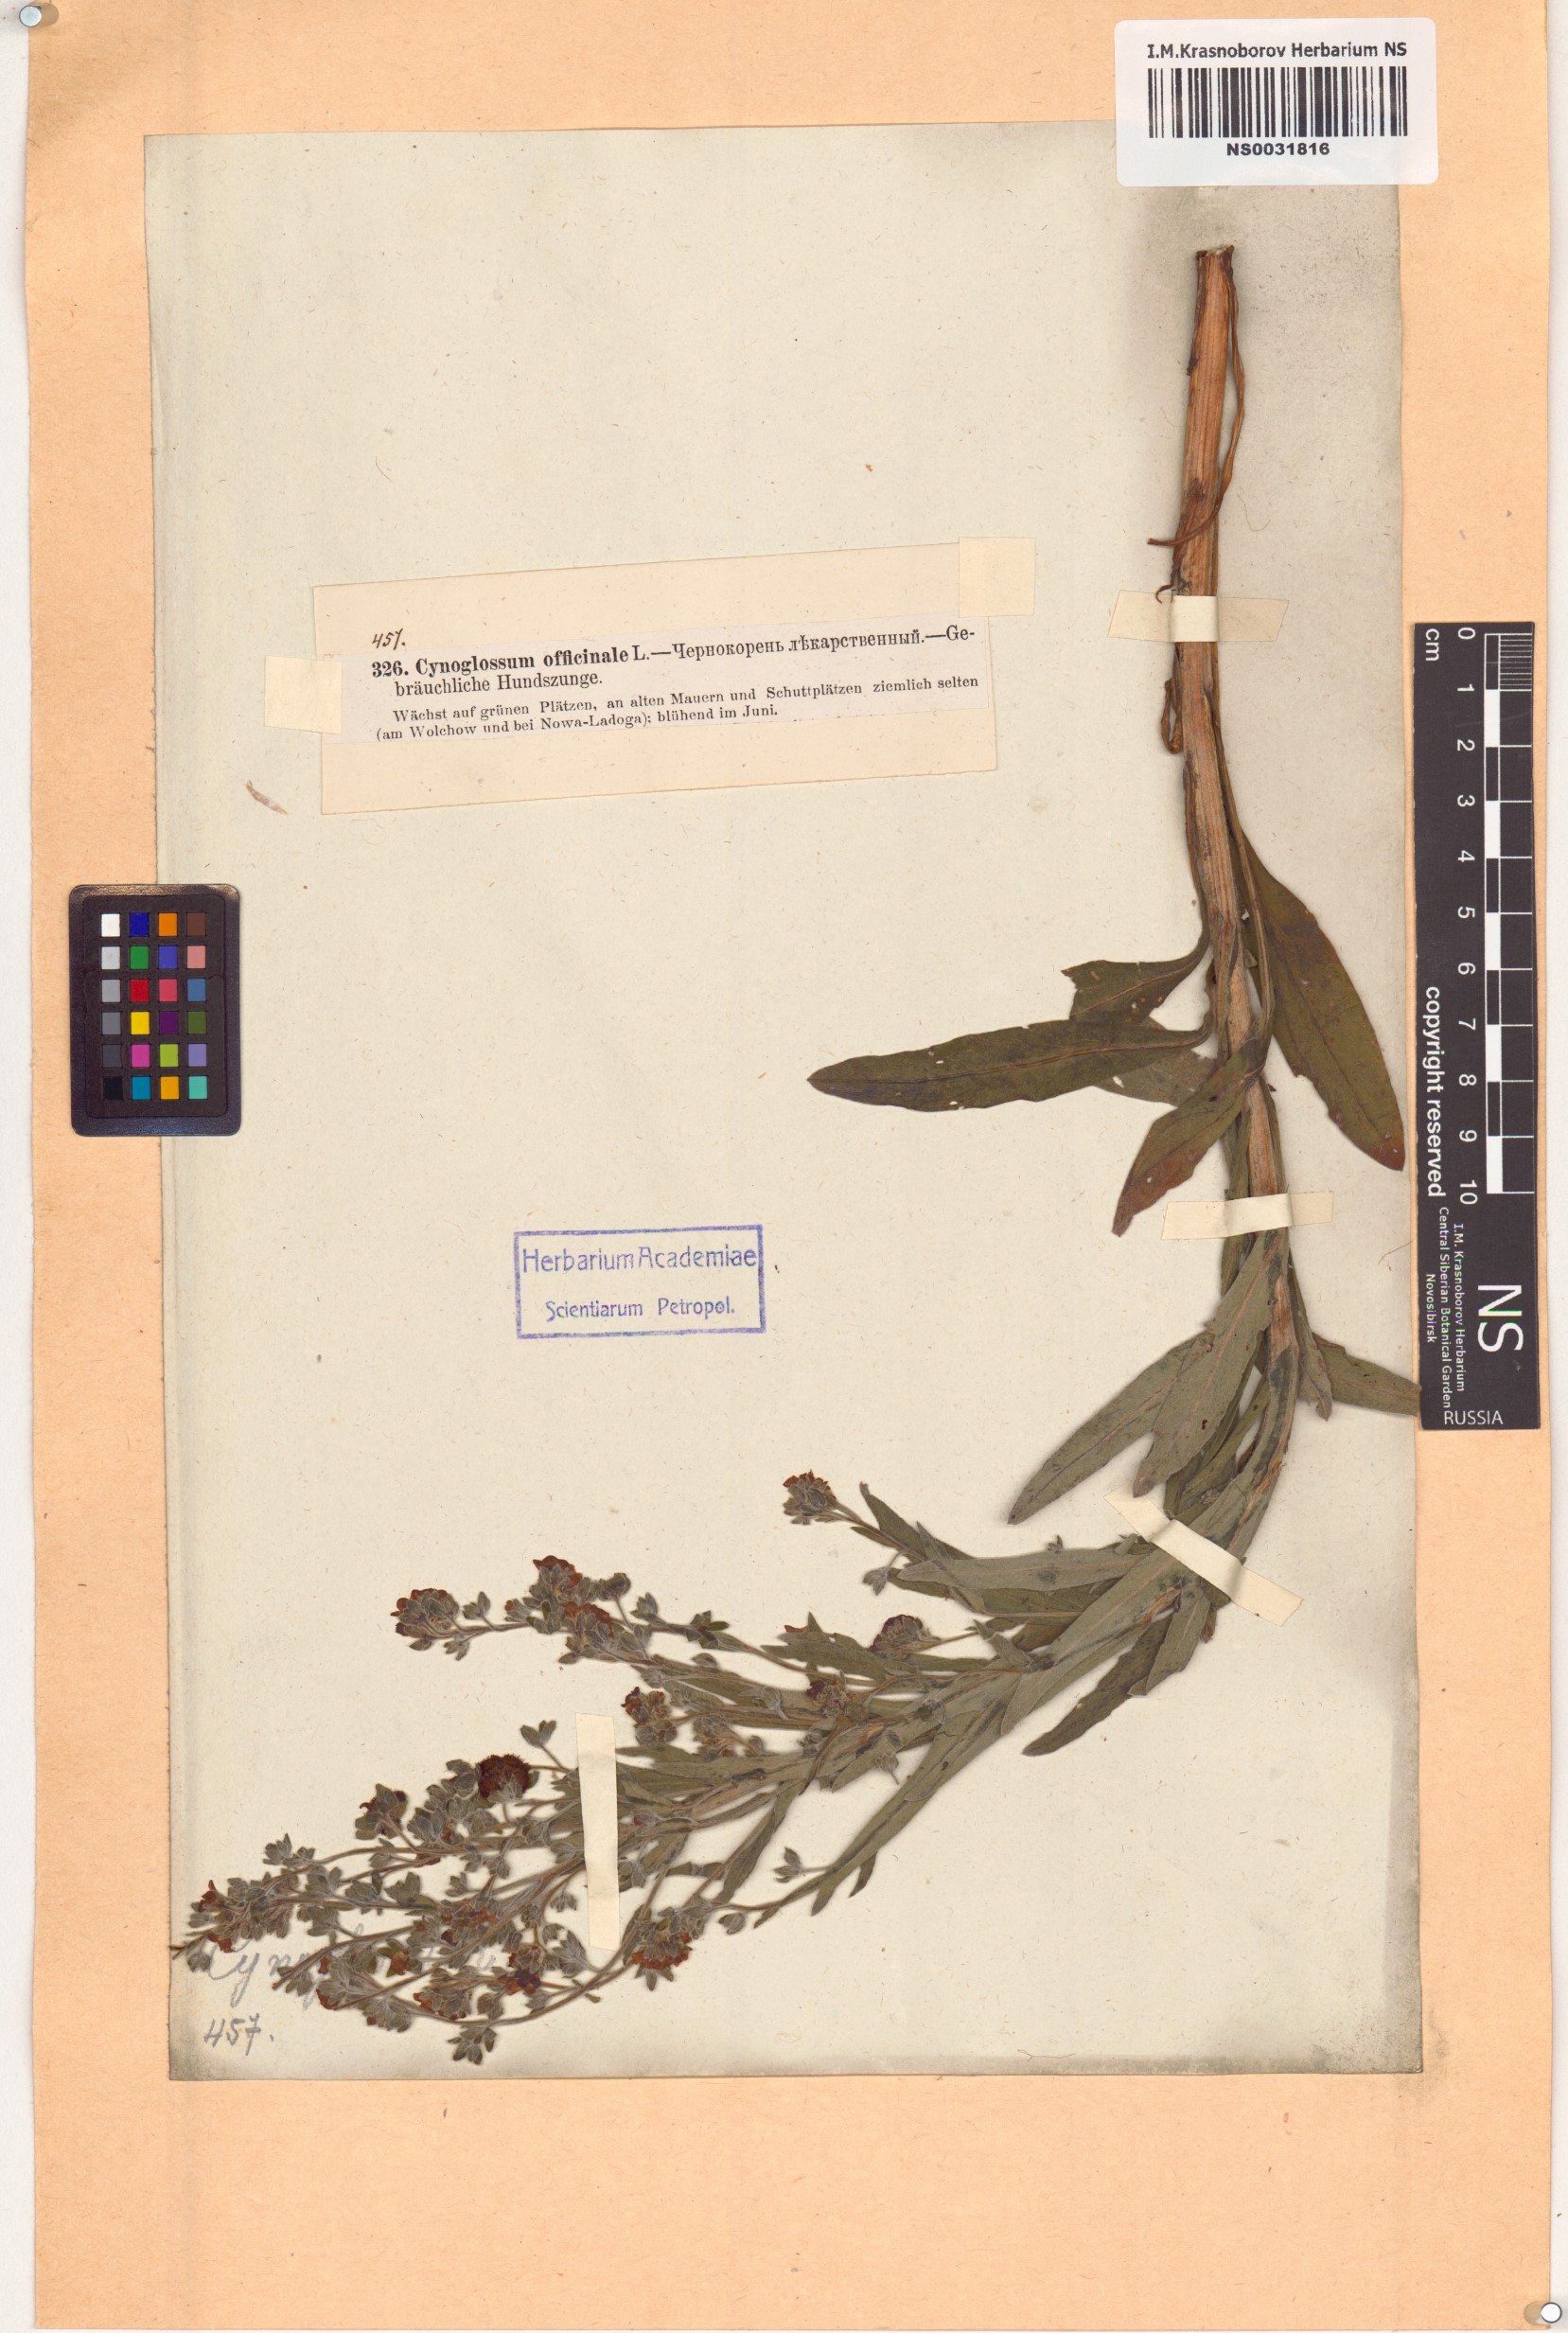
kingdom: Plantae
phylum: Tracheophyta
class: Magnoliopsida
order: Boraginales
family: Boraginaceae
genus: Cynoglossum
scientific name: Cynoglossum officinale
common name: Hound's-tongue
